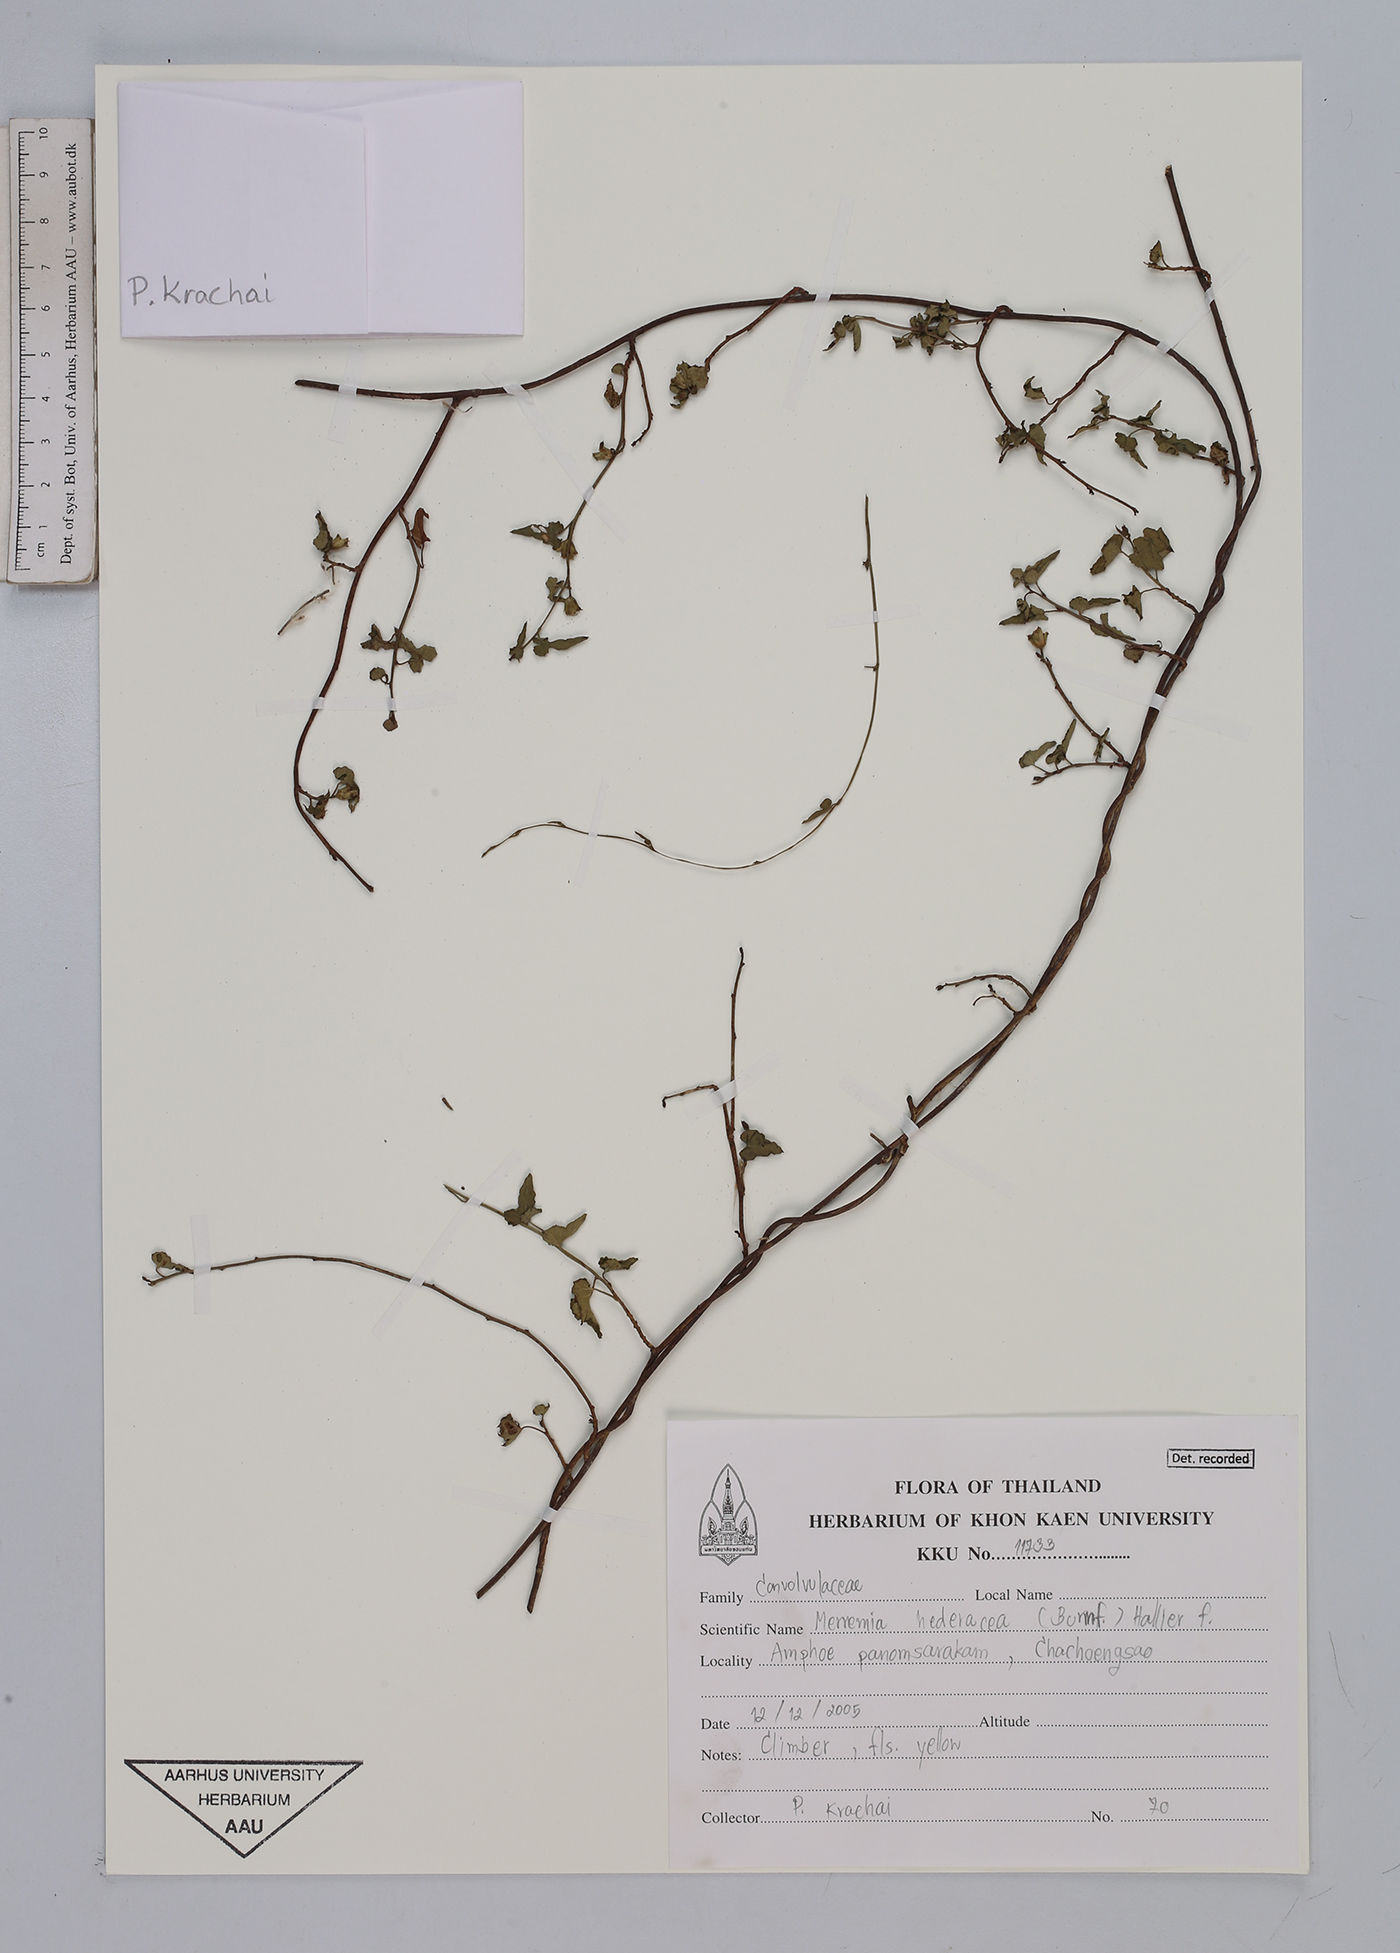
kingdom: Plantae
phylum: Tracheophyta
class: Magnoliopsida
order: Solanales
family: Convolvulaceae
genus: Merremia
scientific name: Merremia hederacea
